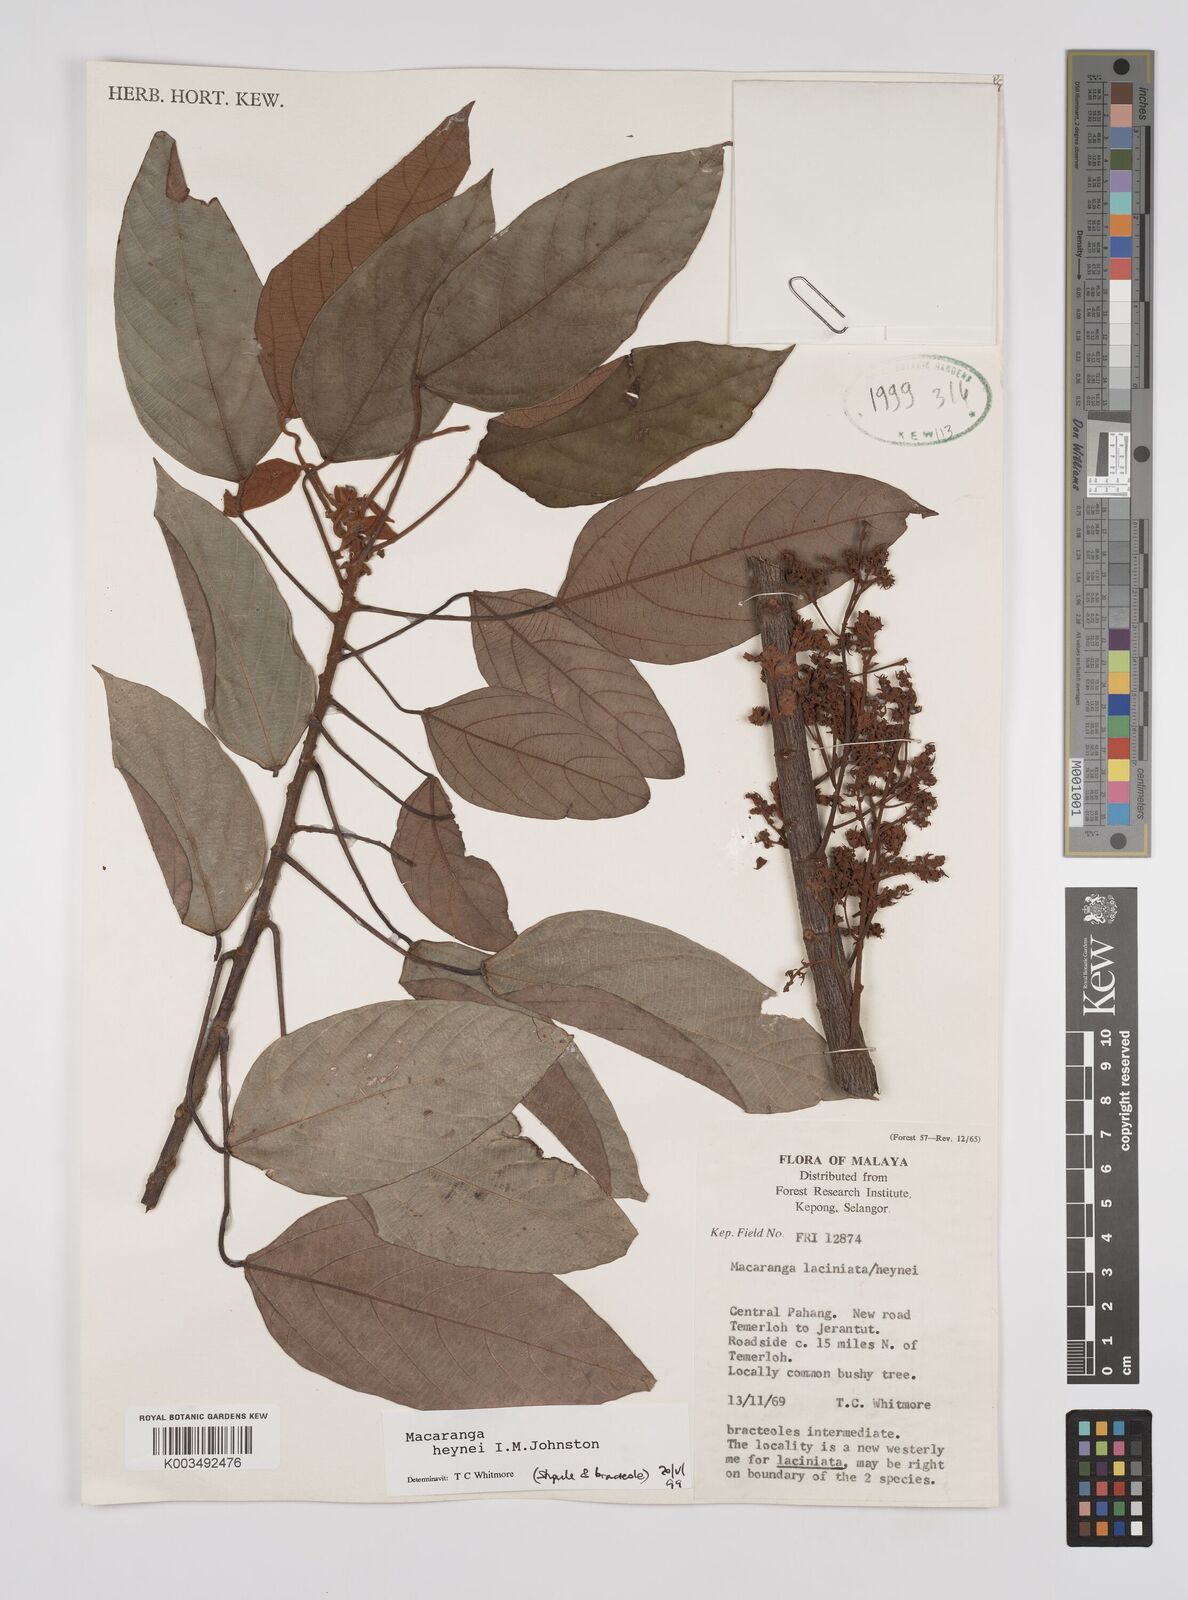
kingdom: Plantae
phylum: Tracheophyta
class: Magnoliopsida
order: Malpighiales
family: Euphorbiaceae
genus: Macaranga
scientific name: Macaranga heynei
